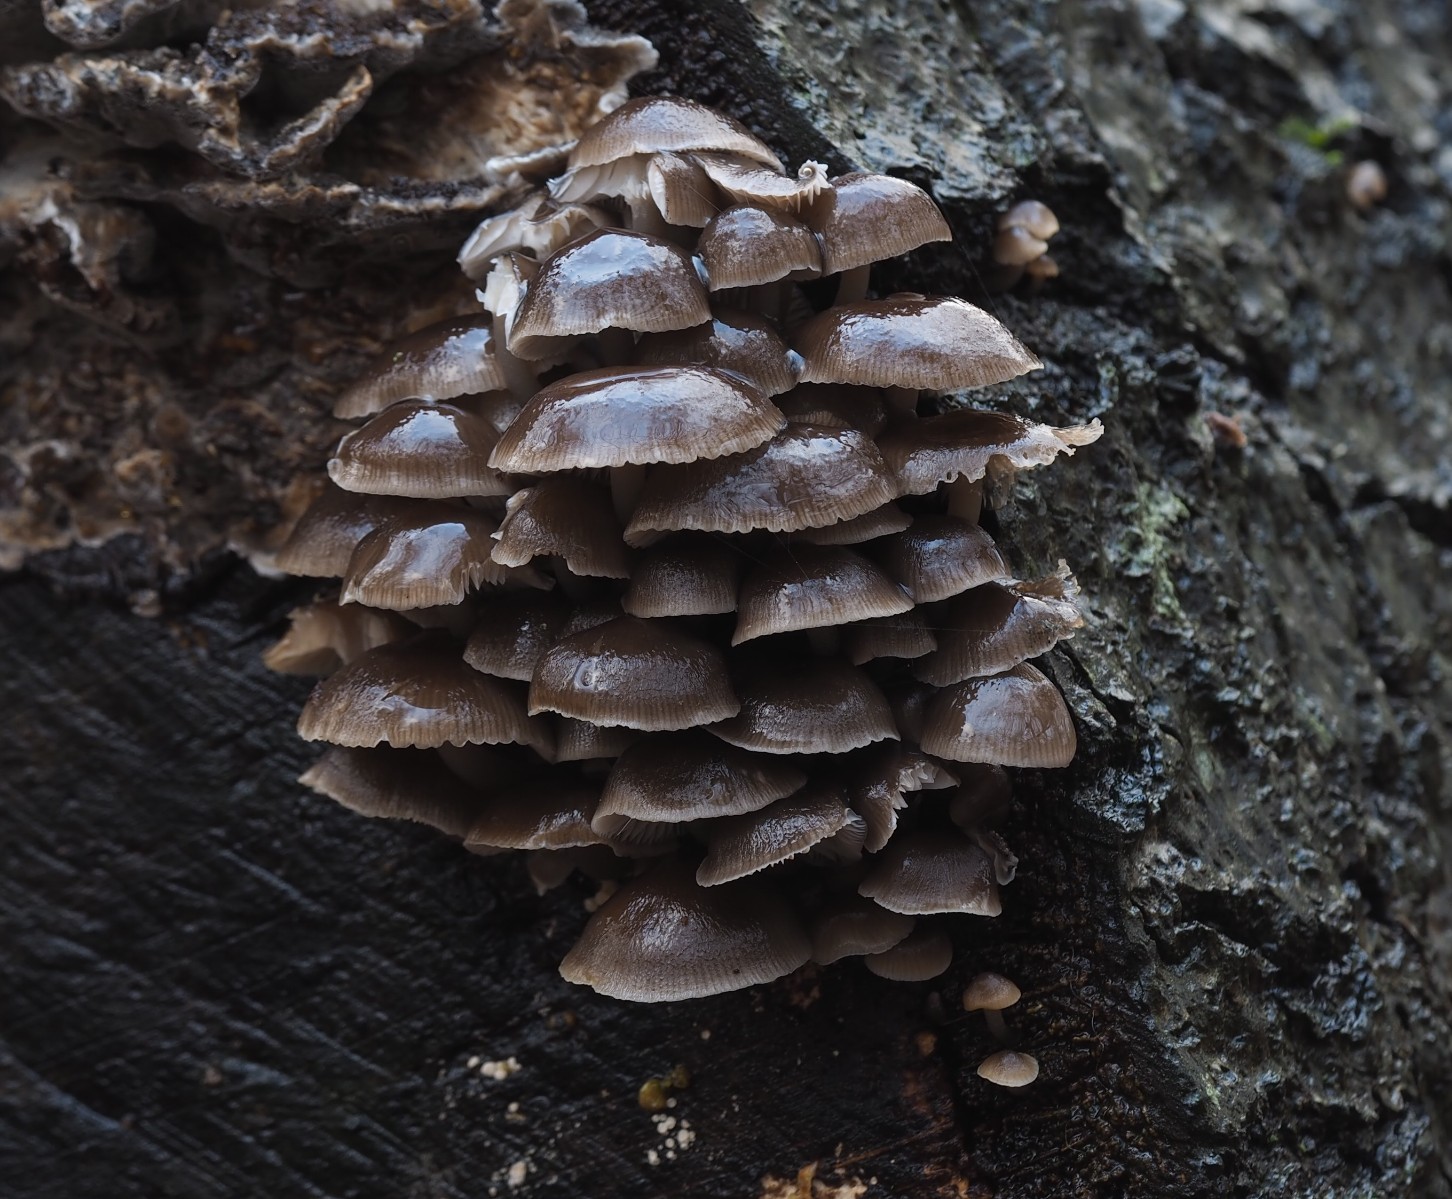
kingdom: Fungi
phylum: Basidiomycota
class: Agaricomycetes
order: Agaricales
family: Mycenaceae
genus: Mycena
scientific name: Mycena tintinnabulum
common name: vinter-huesvamp
